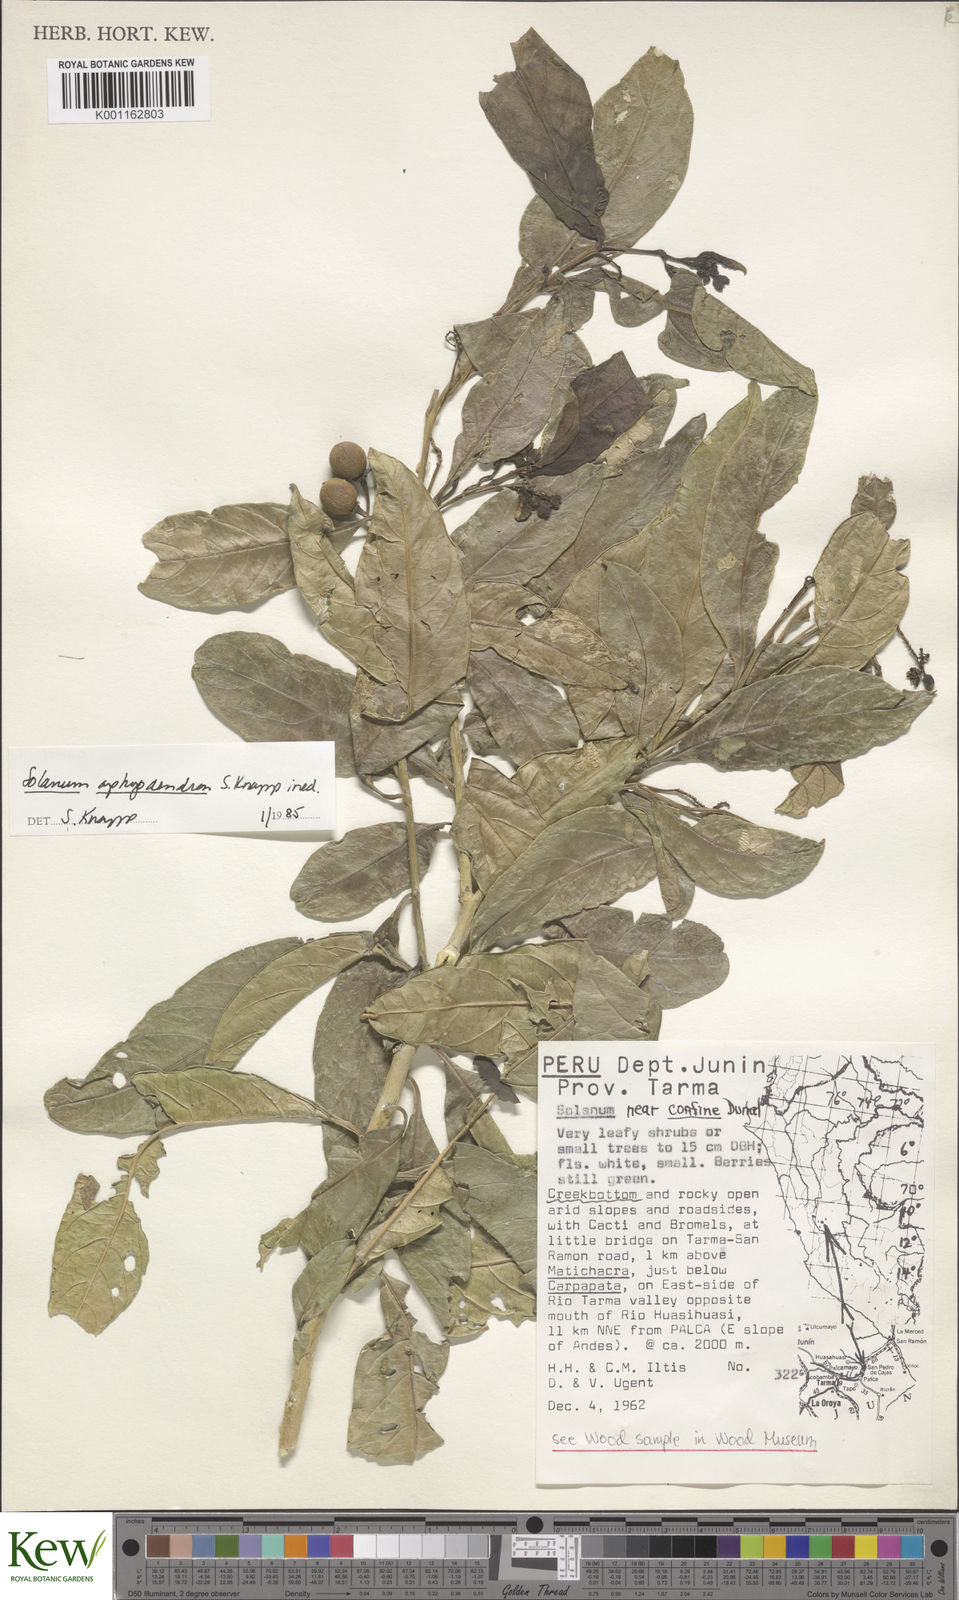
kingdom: Plantae
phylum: Tracheophyta
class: Magnoliopsida
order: Solanales
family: Solanaceae
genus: Solanum
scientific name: Solanum aphyodendron
